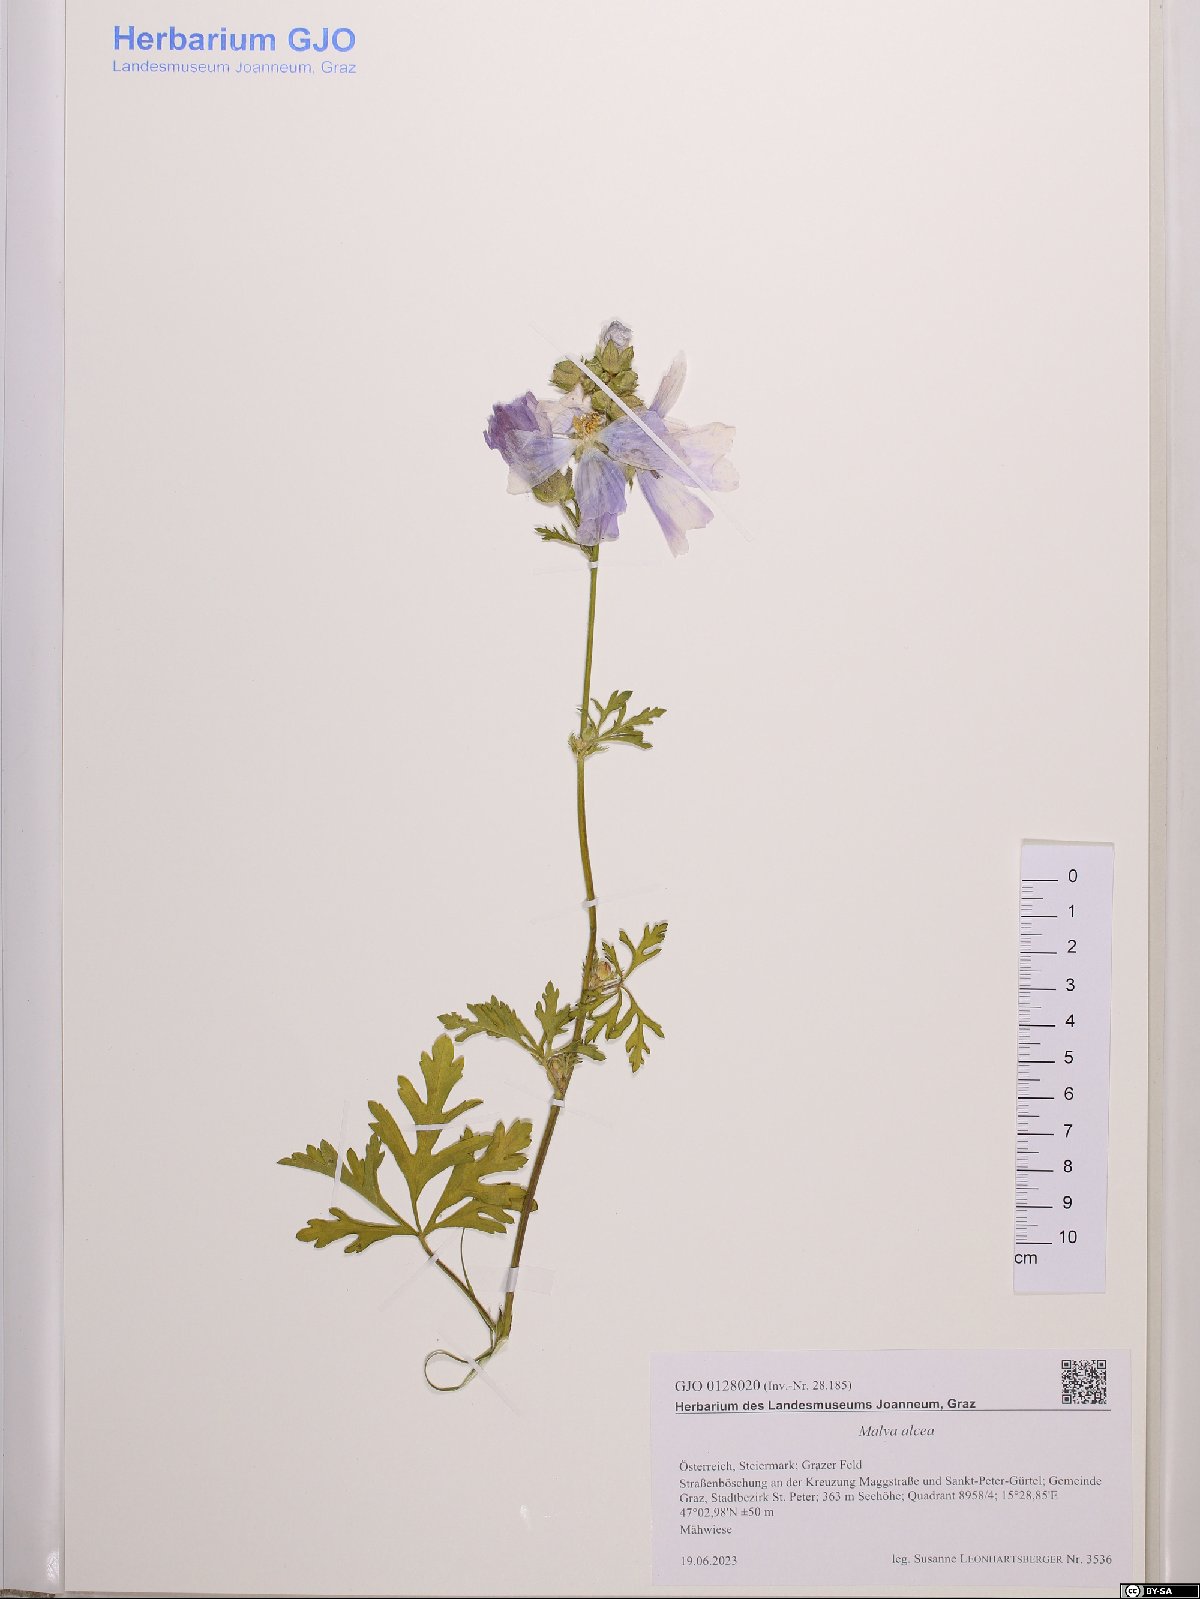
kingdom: Plantae
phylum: Tracheophyta
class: Magnoliopsida
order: Malvales
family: Malvaceae
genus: Malva
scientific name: Malva alcea
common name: Greater musk-mallow
